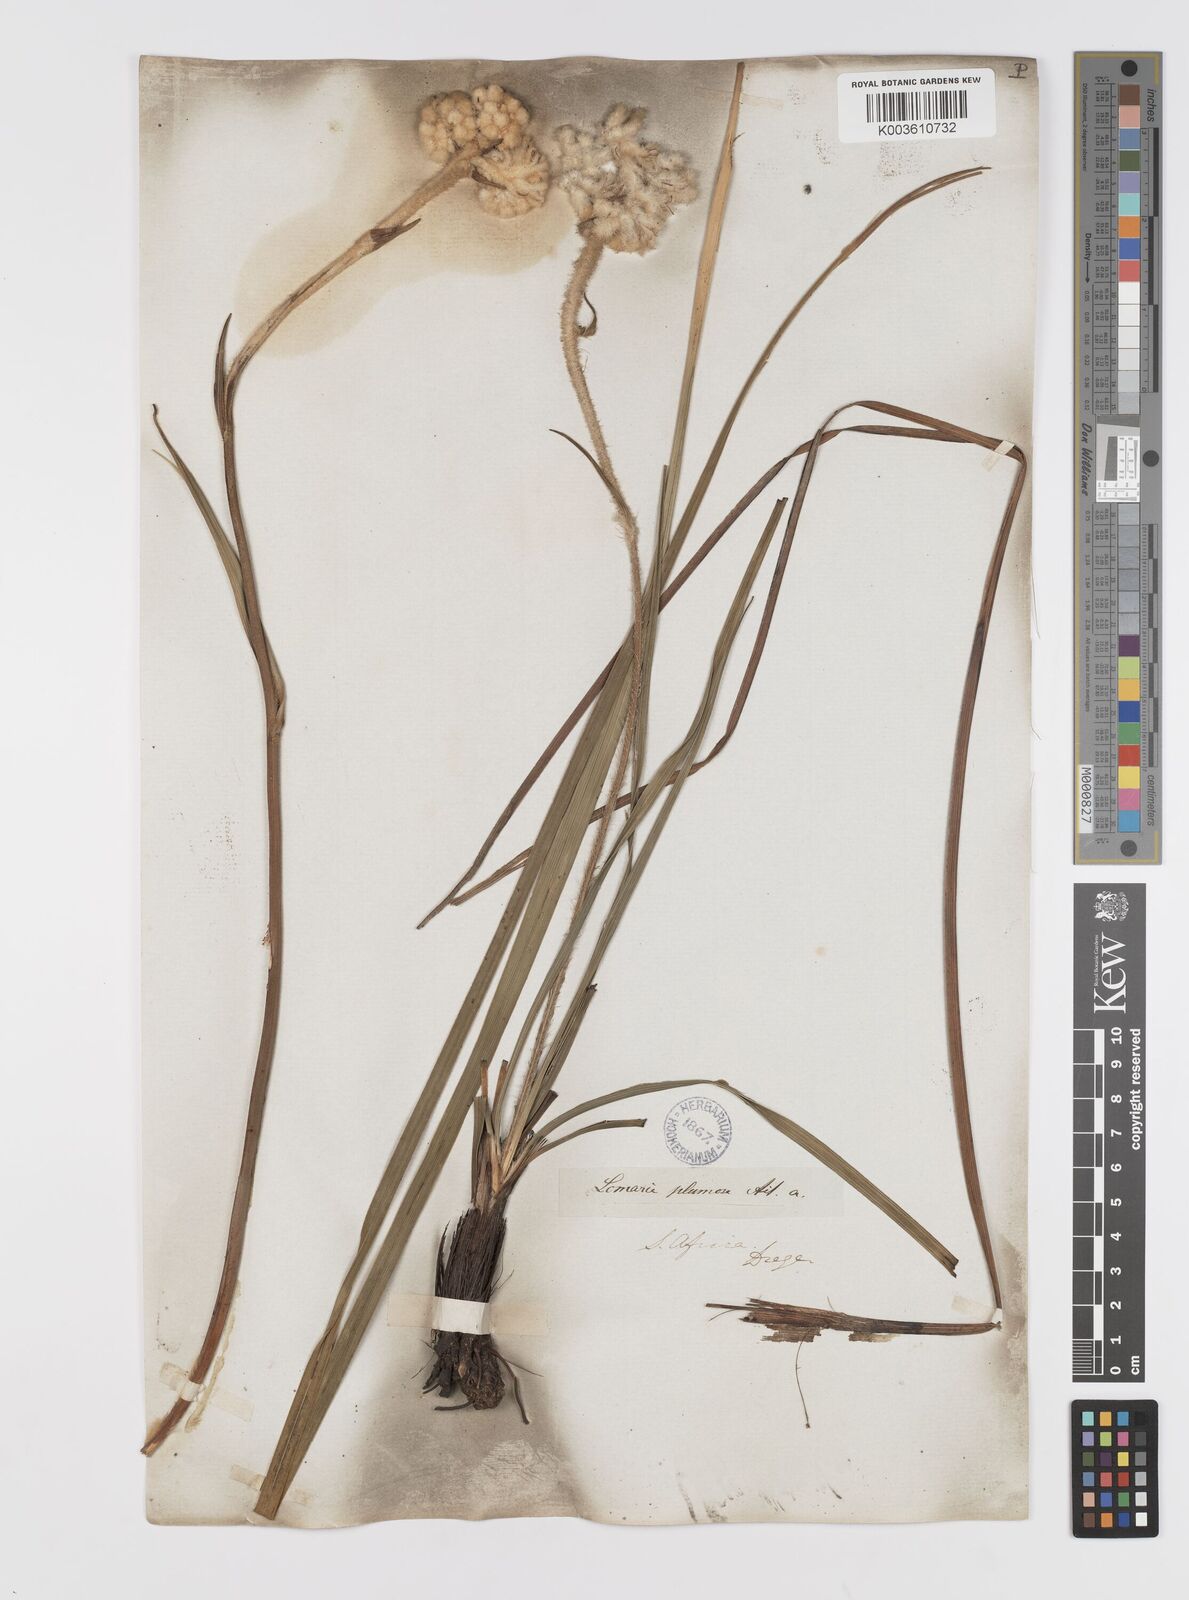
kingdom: Plantae
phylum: Tracheophyta
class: Liliopsida
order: Asparagales
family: Lanariaceae
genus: Lanaria
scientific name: Lanaria lanata
